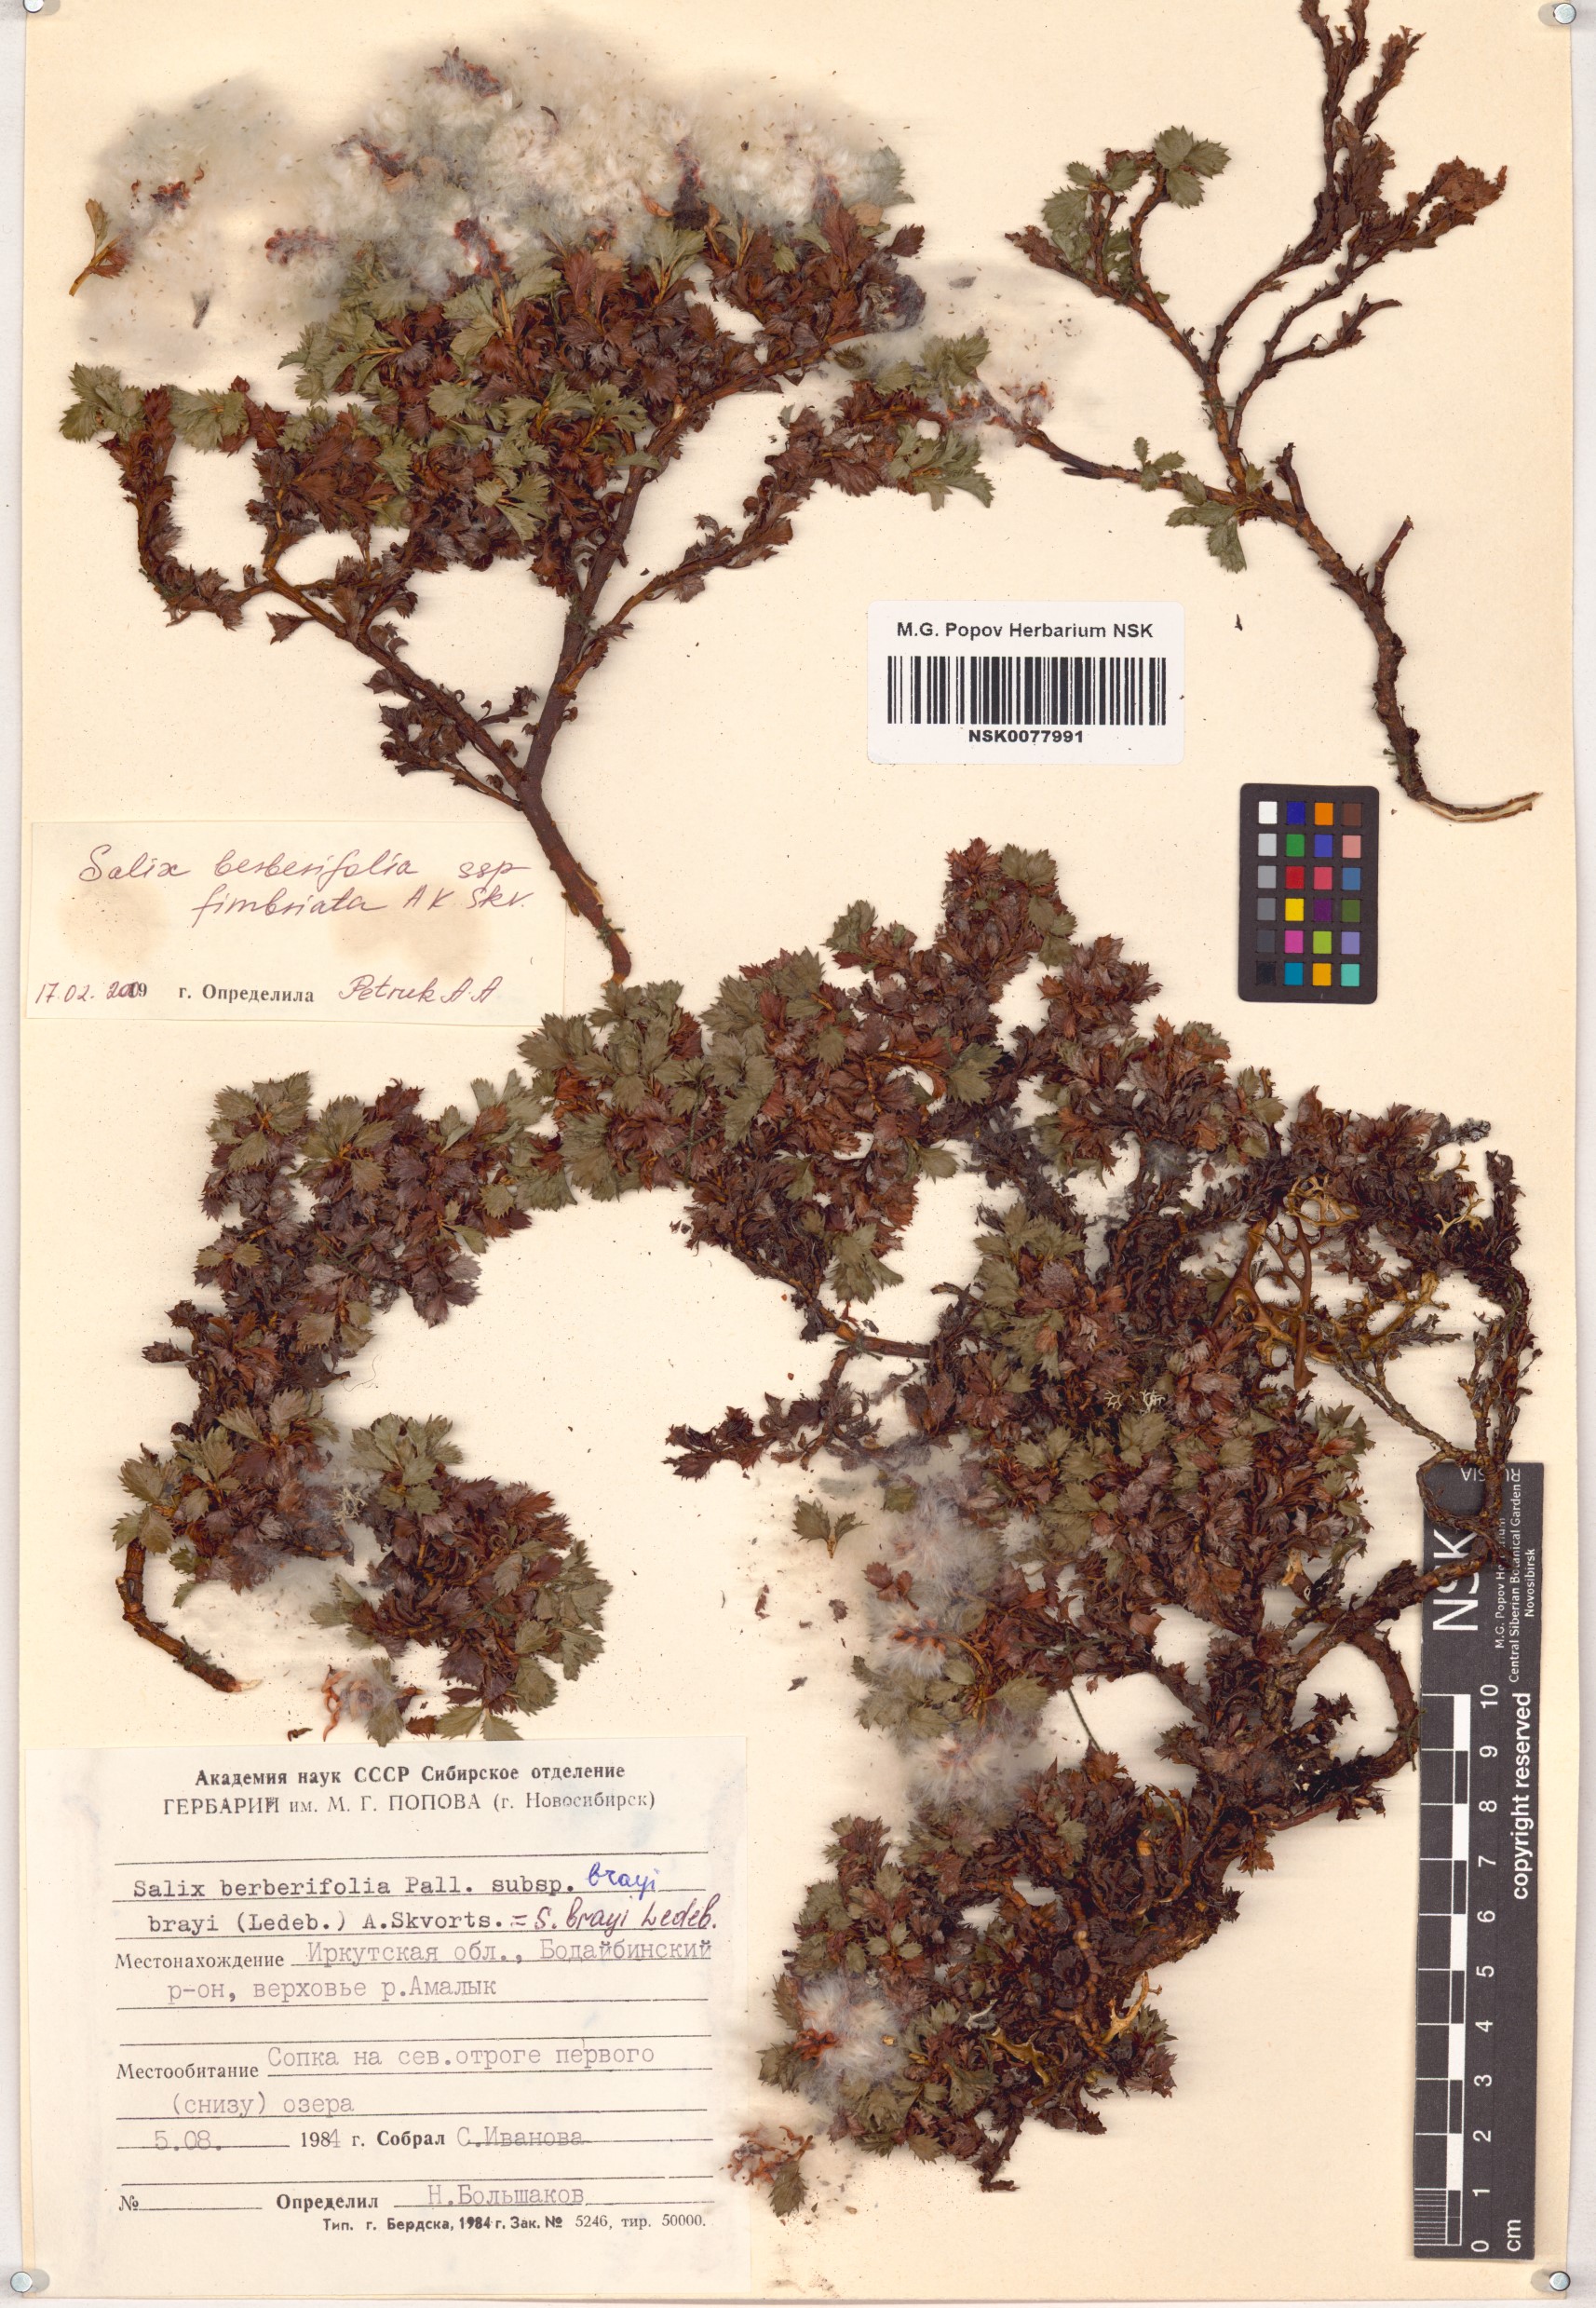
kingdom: Plantae
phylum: Tracheophyta
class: Magnoliopsida
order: Malpighiales
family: Salicaceae
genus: Salix
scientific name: Salix berberifolia
